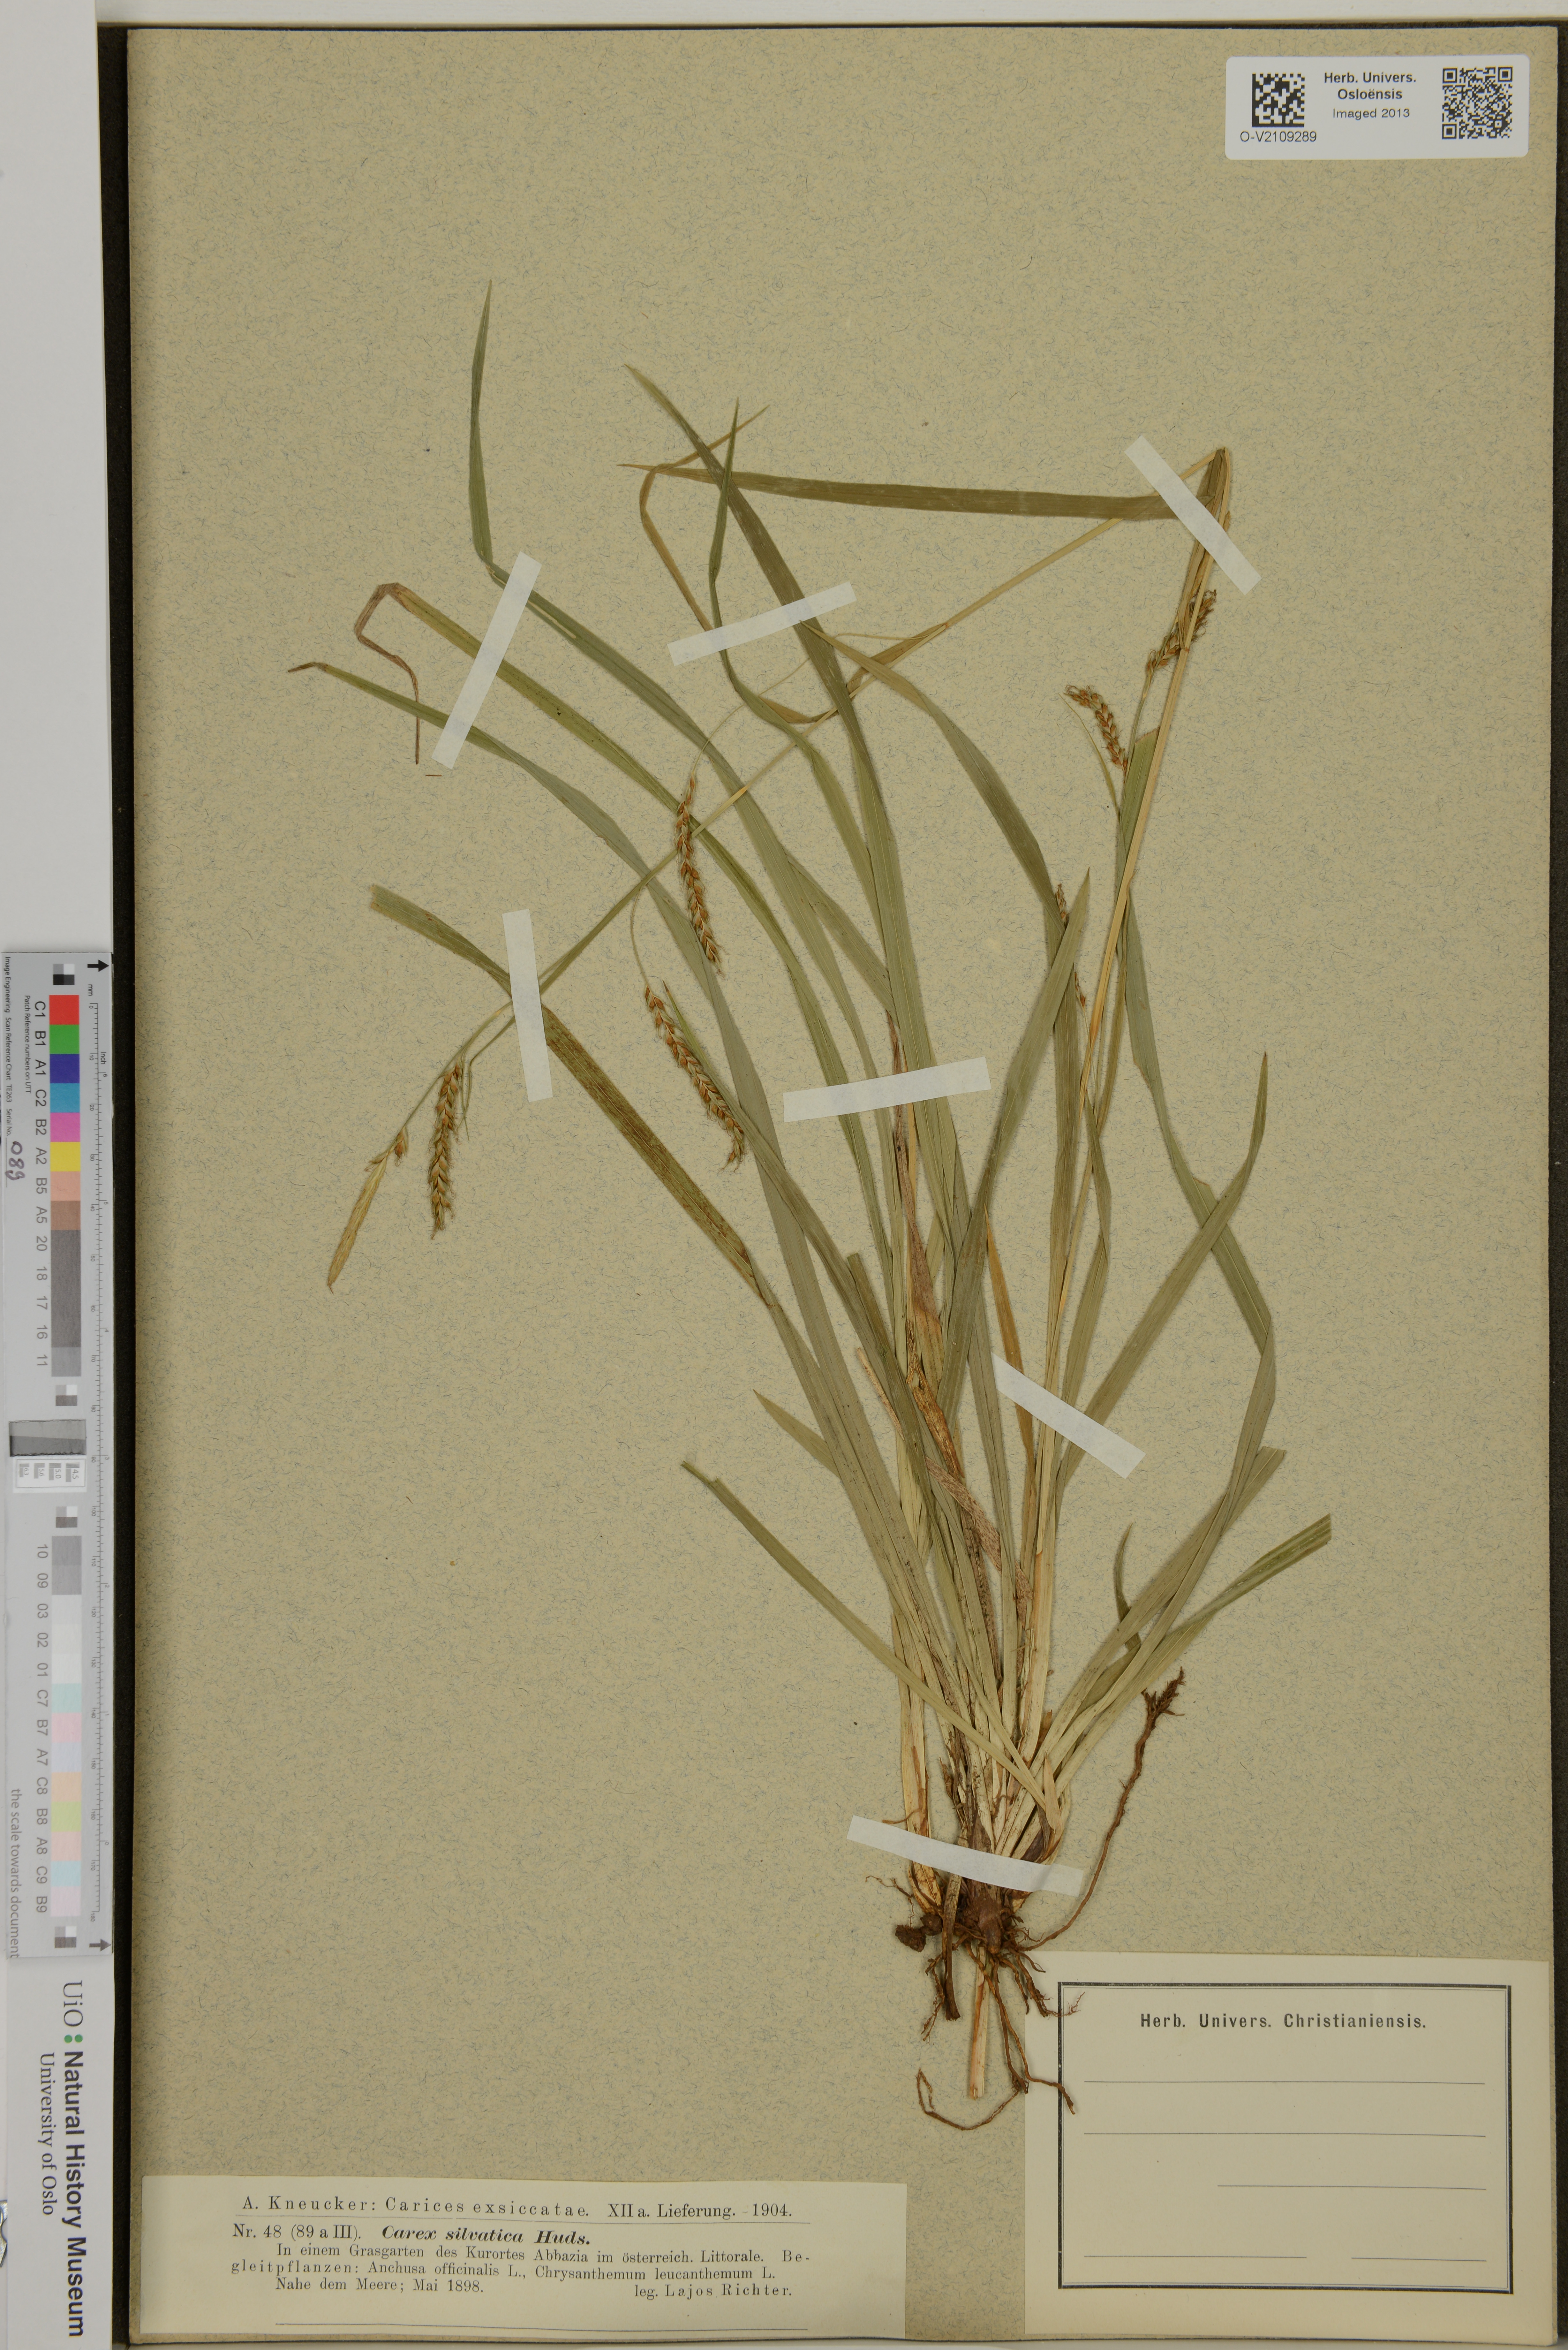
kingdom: Plantae
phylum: Tracheophyta
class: Liliopsida
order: Poales
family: Cyperaceae
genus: Carex
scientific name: Carex sylvatica
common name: Wood-sedge
